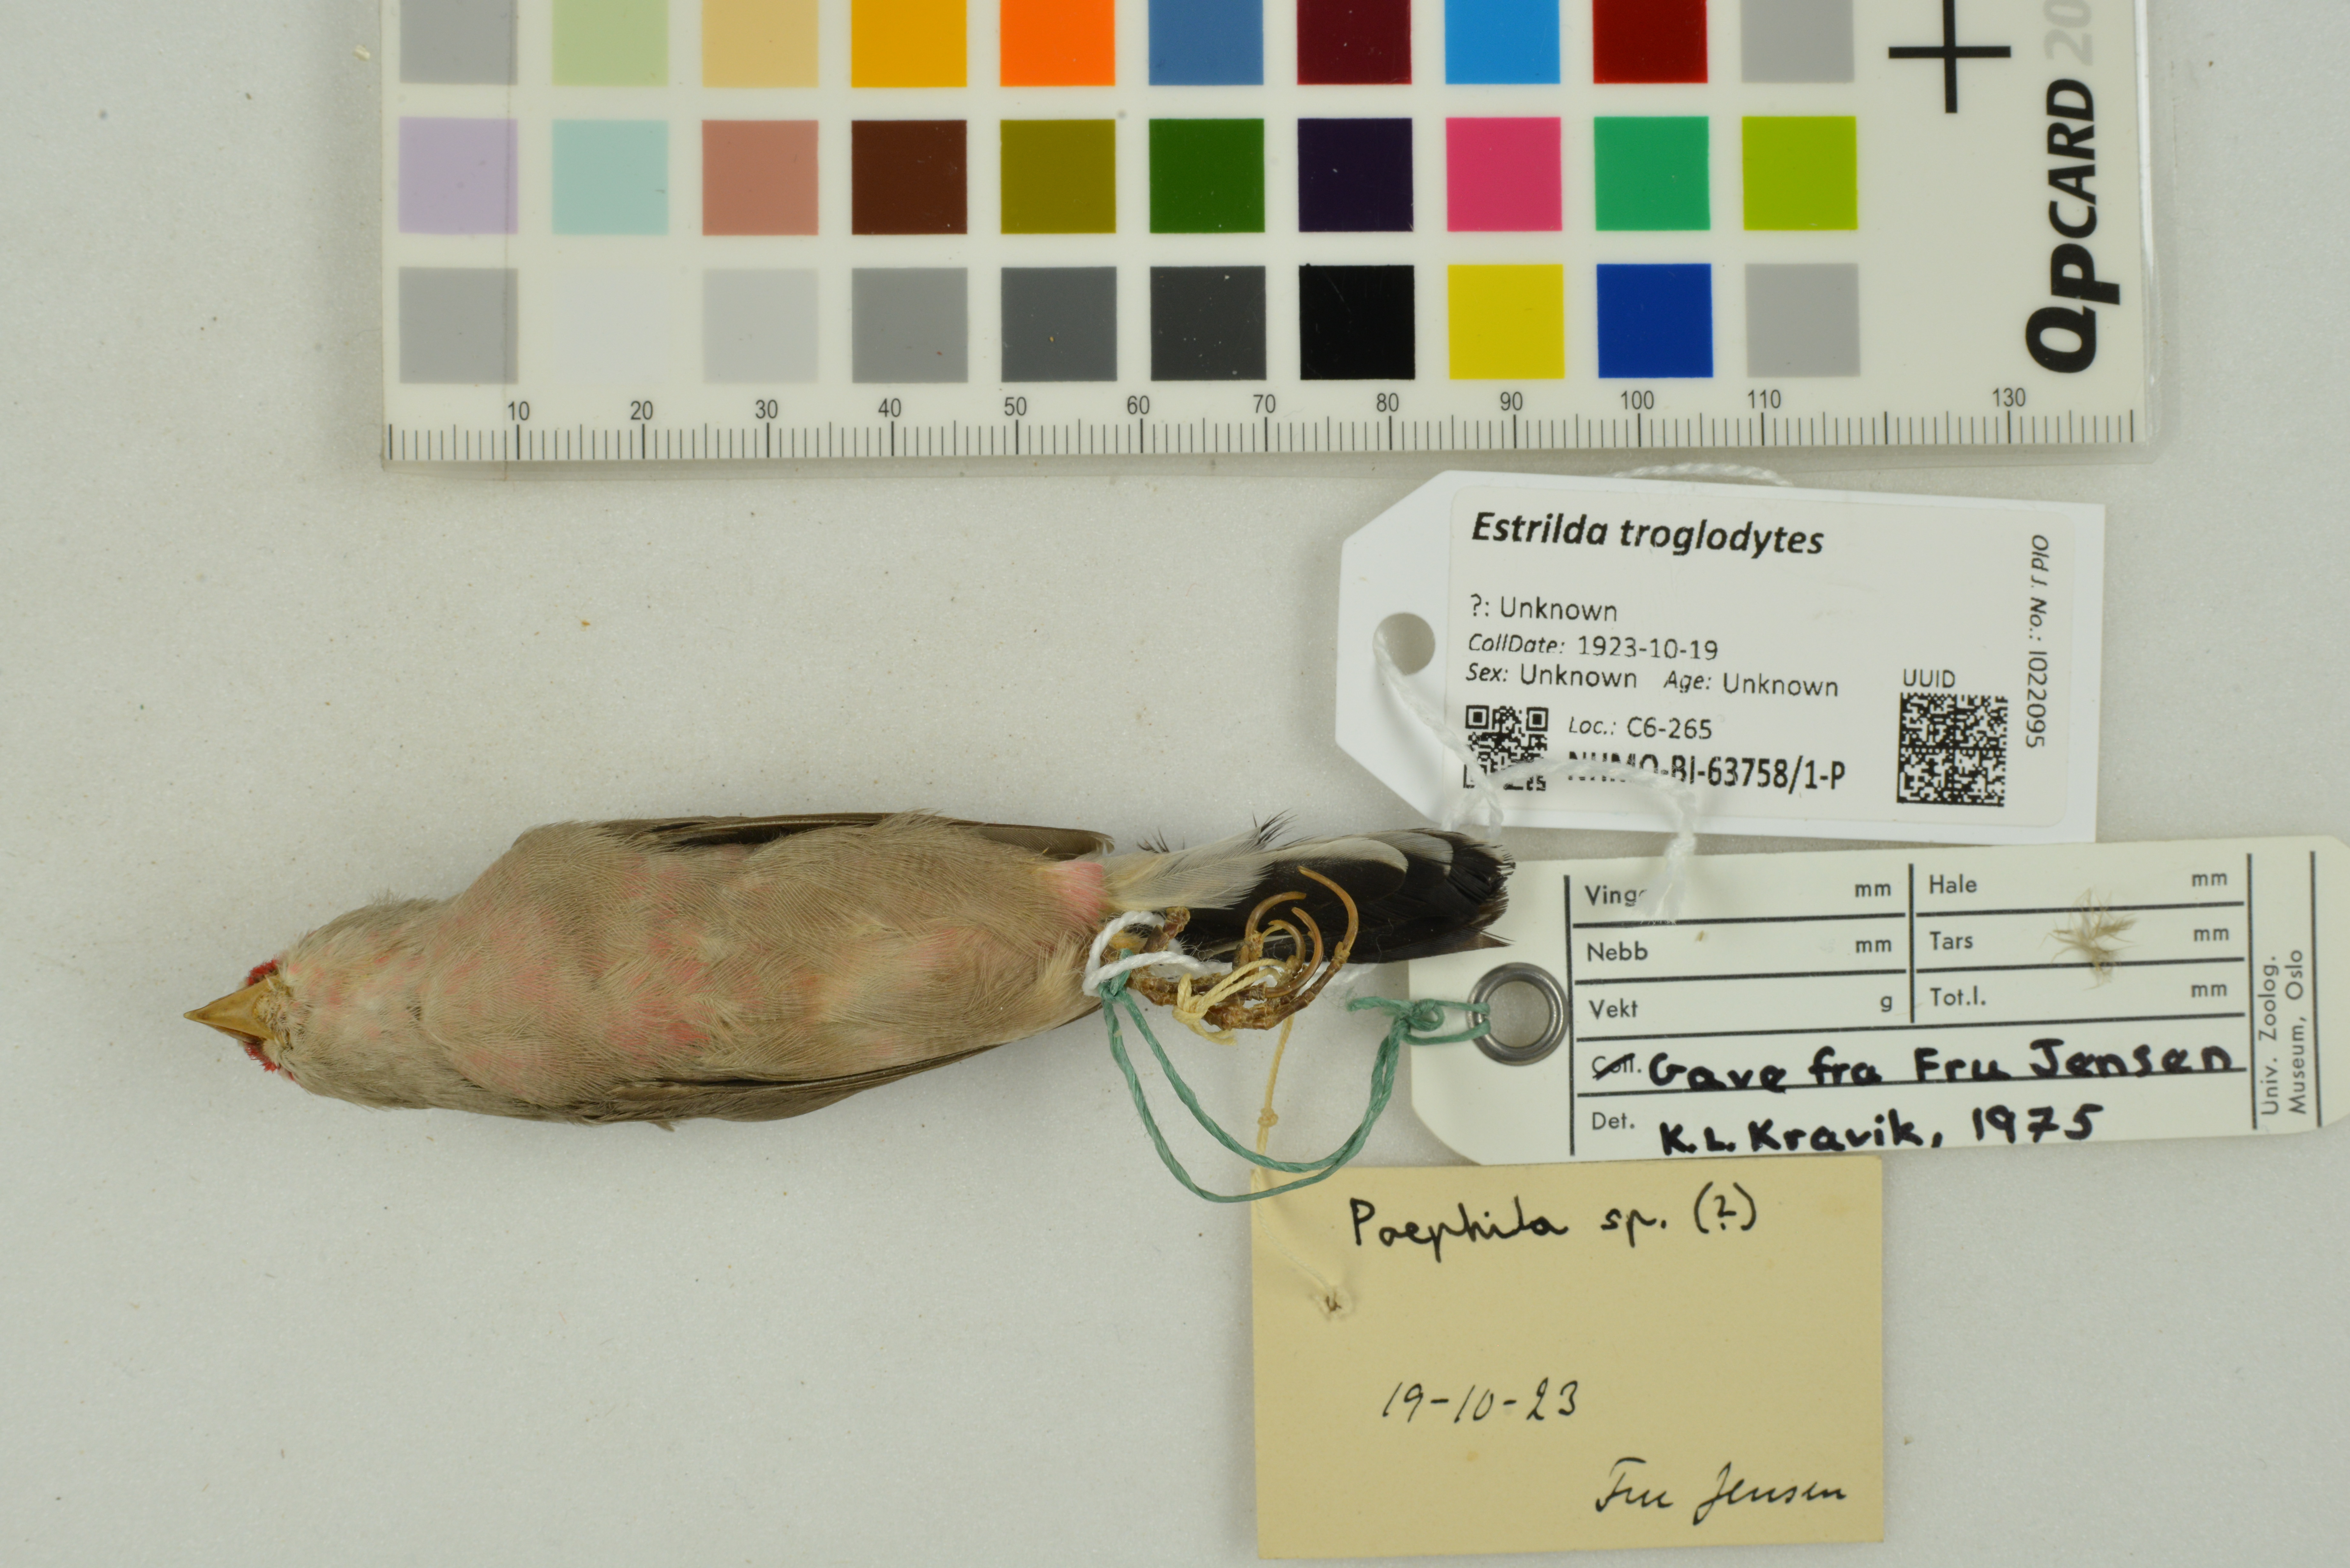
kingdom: Animalia
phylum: Chordata
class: Aves
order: Passeriformes
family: Estrildidae
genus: Estrilda
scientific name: Estrilda troglodytes
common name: Black-rumped waxbill
